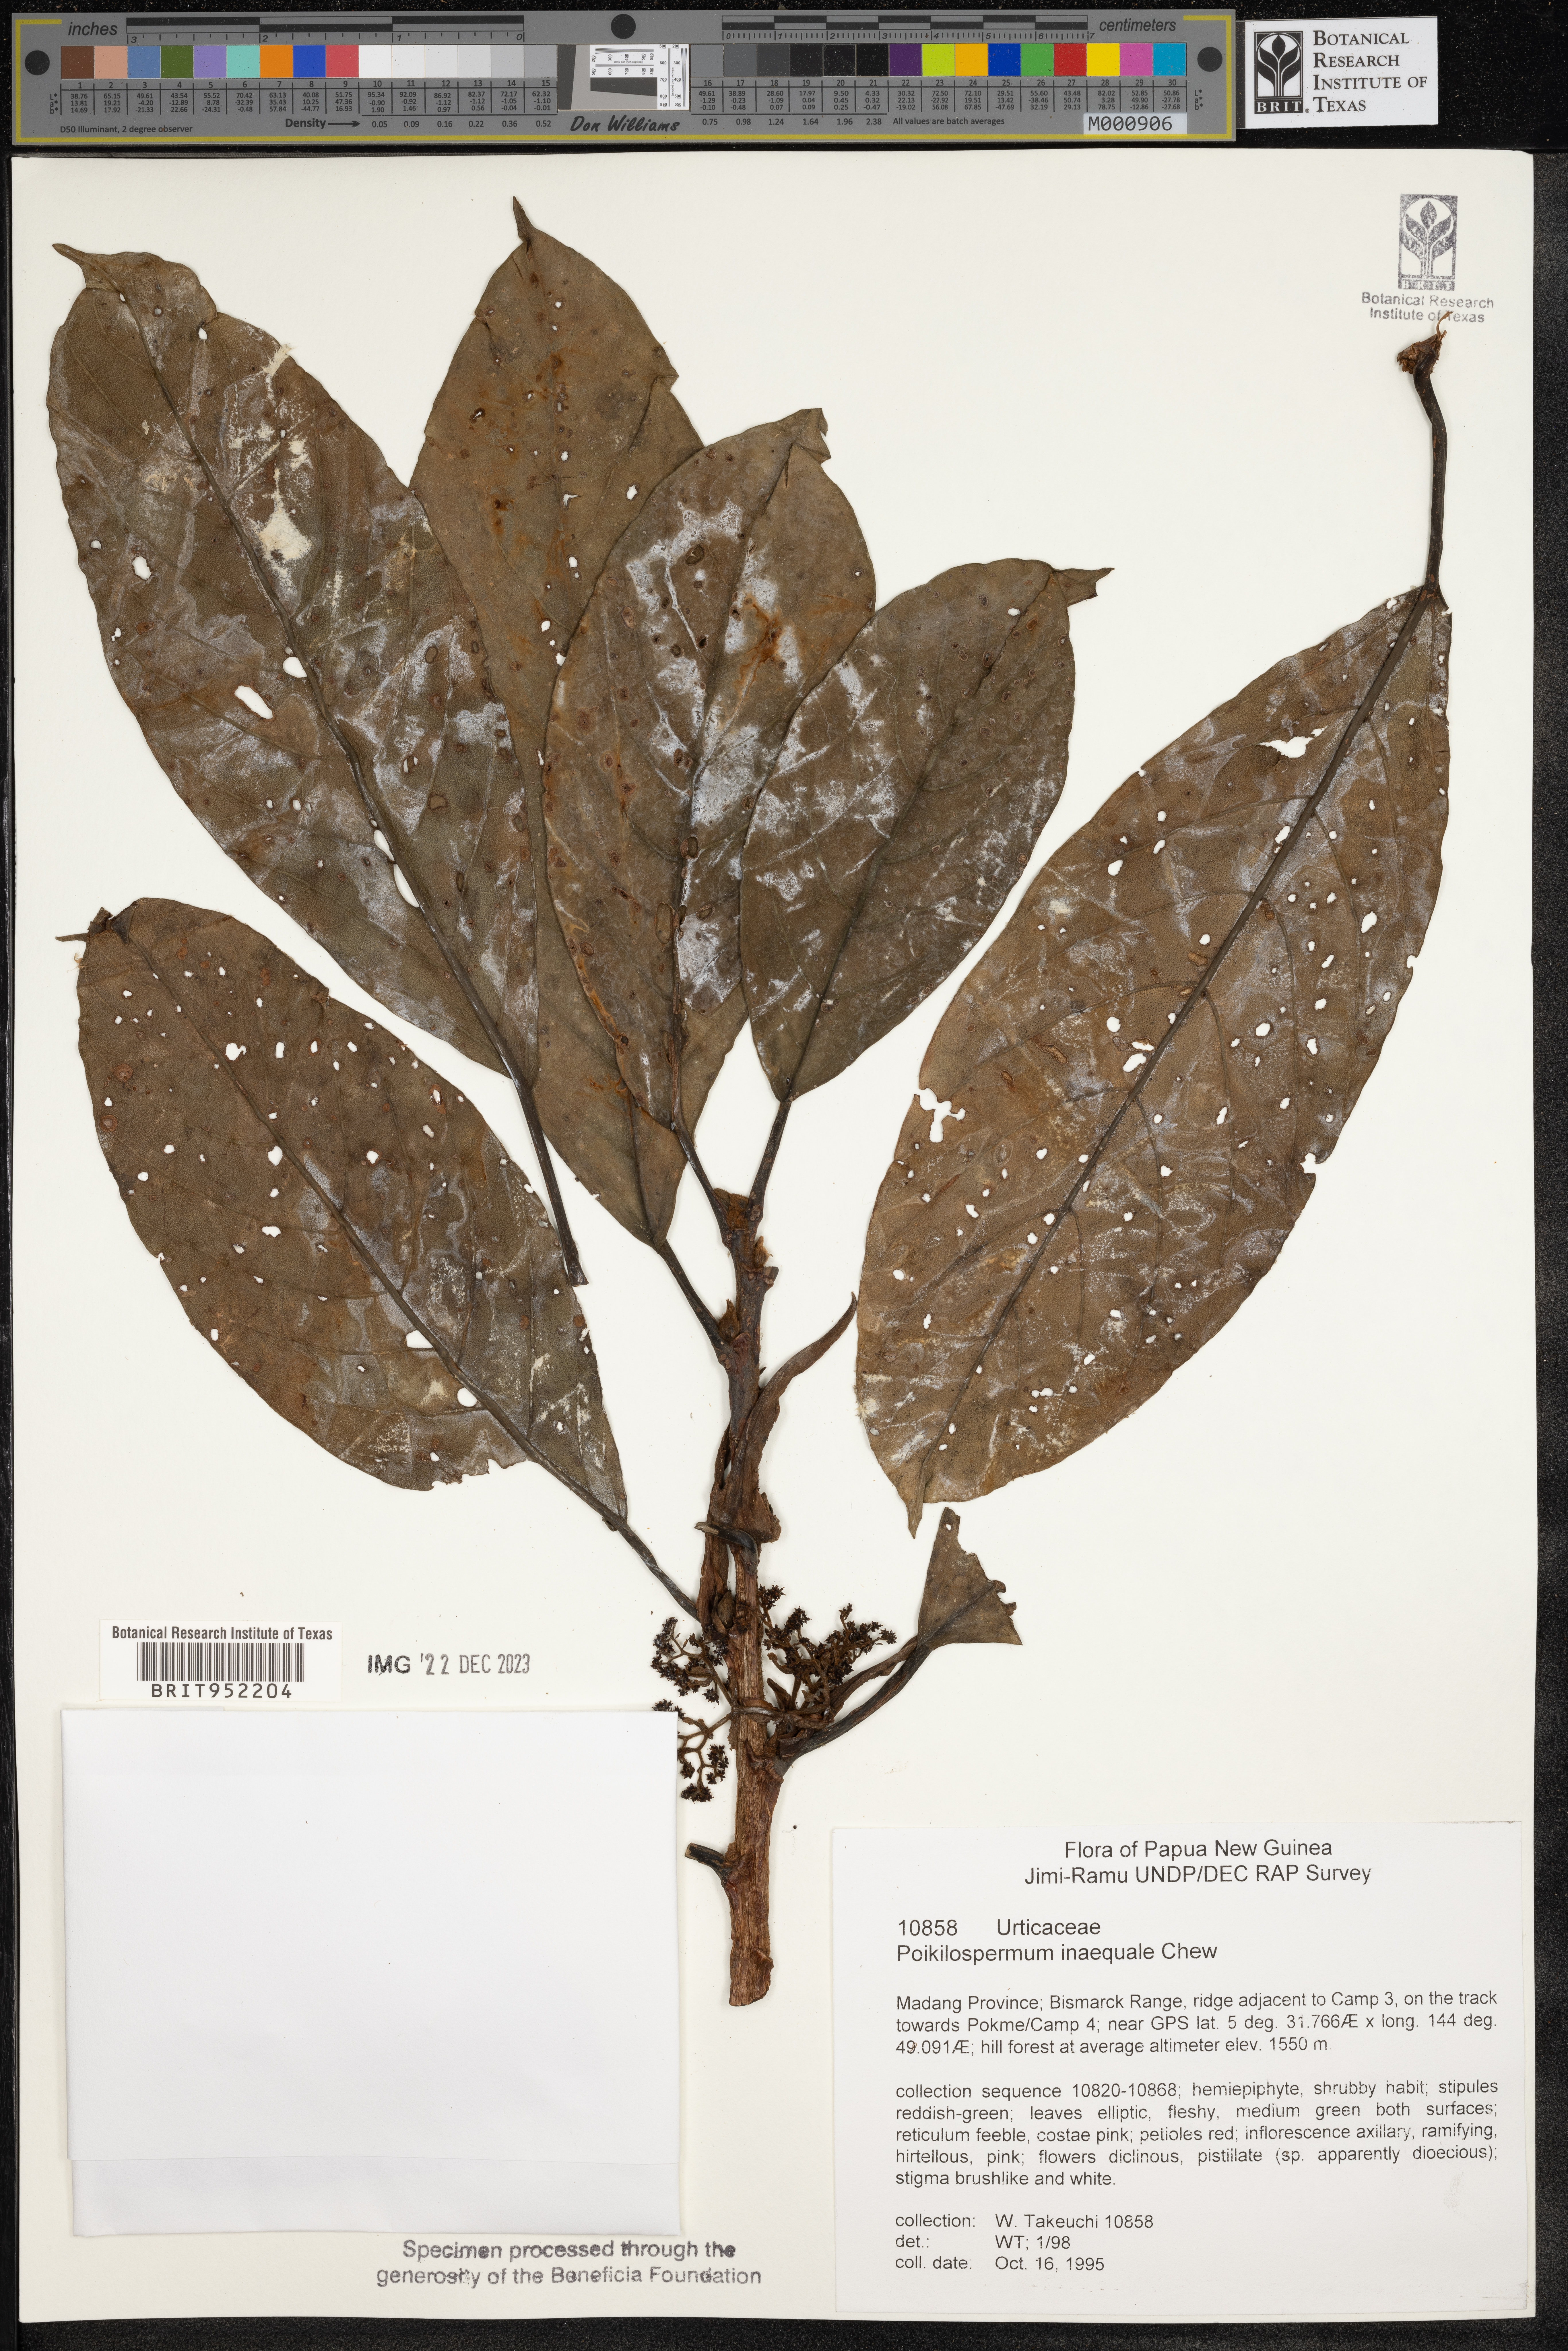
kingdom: Plantae
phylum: Tracheophyta
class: Magnoliopsida
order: Rosales
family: Urticaceae
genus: Poikilospermum
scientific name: Poikilospermum
